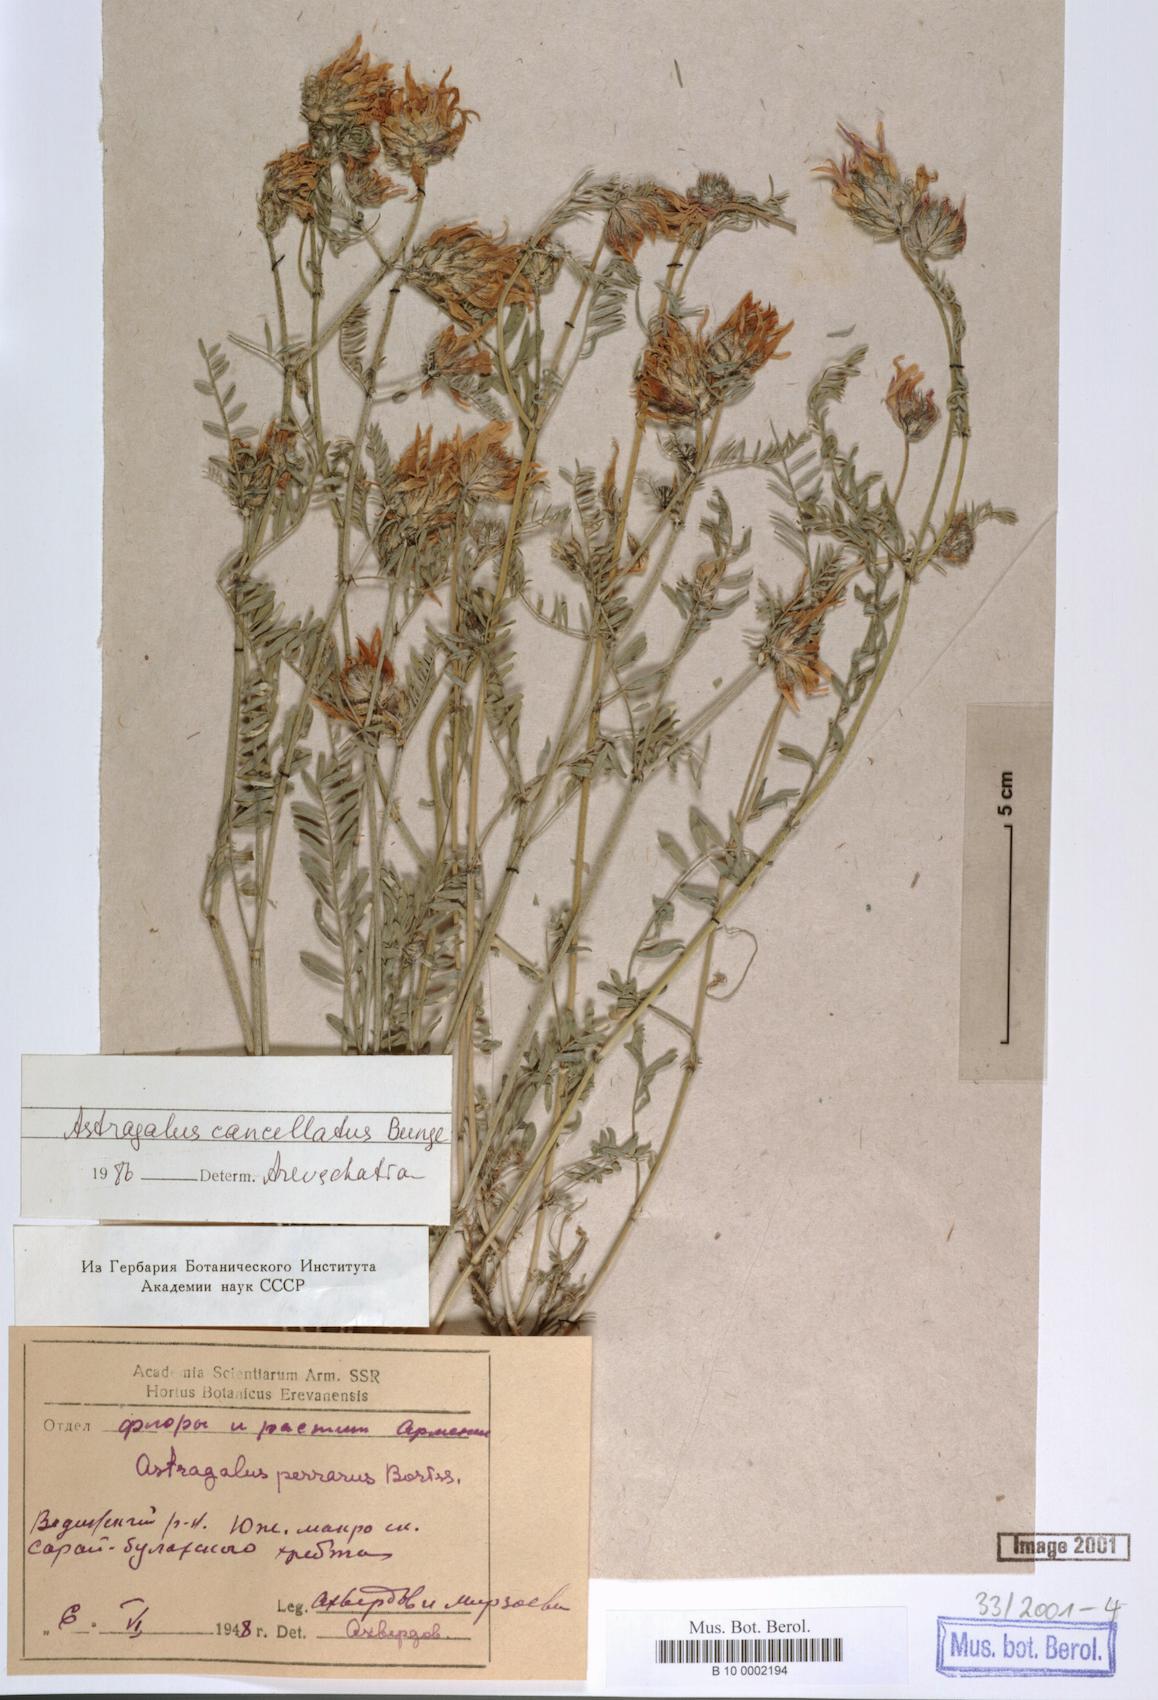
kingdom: Plantae
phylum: Tracheophyta
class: Magnoliopsida
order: Fabales
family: Fabaceae
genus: Astragalus
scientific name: Astragalus cancellatus
